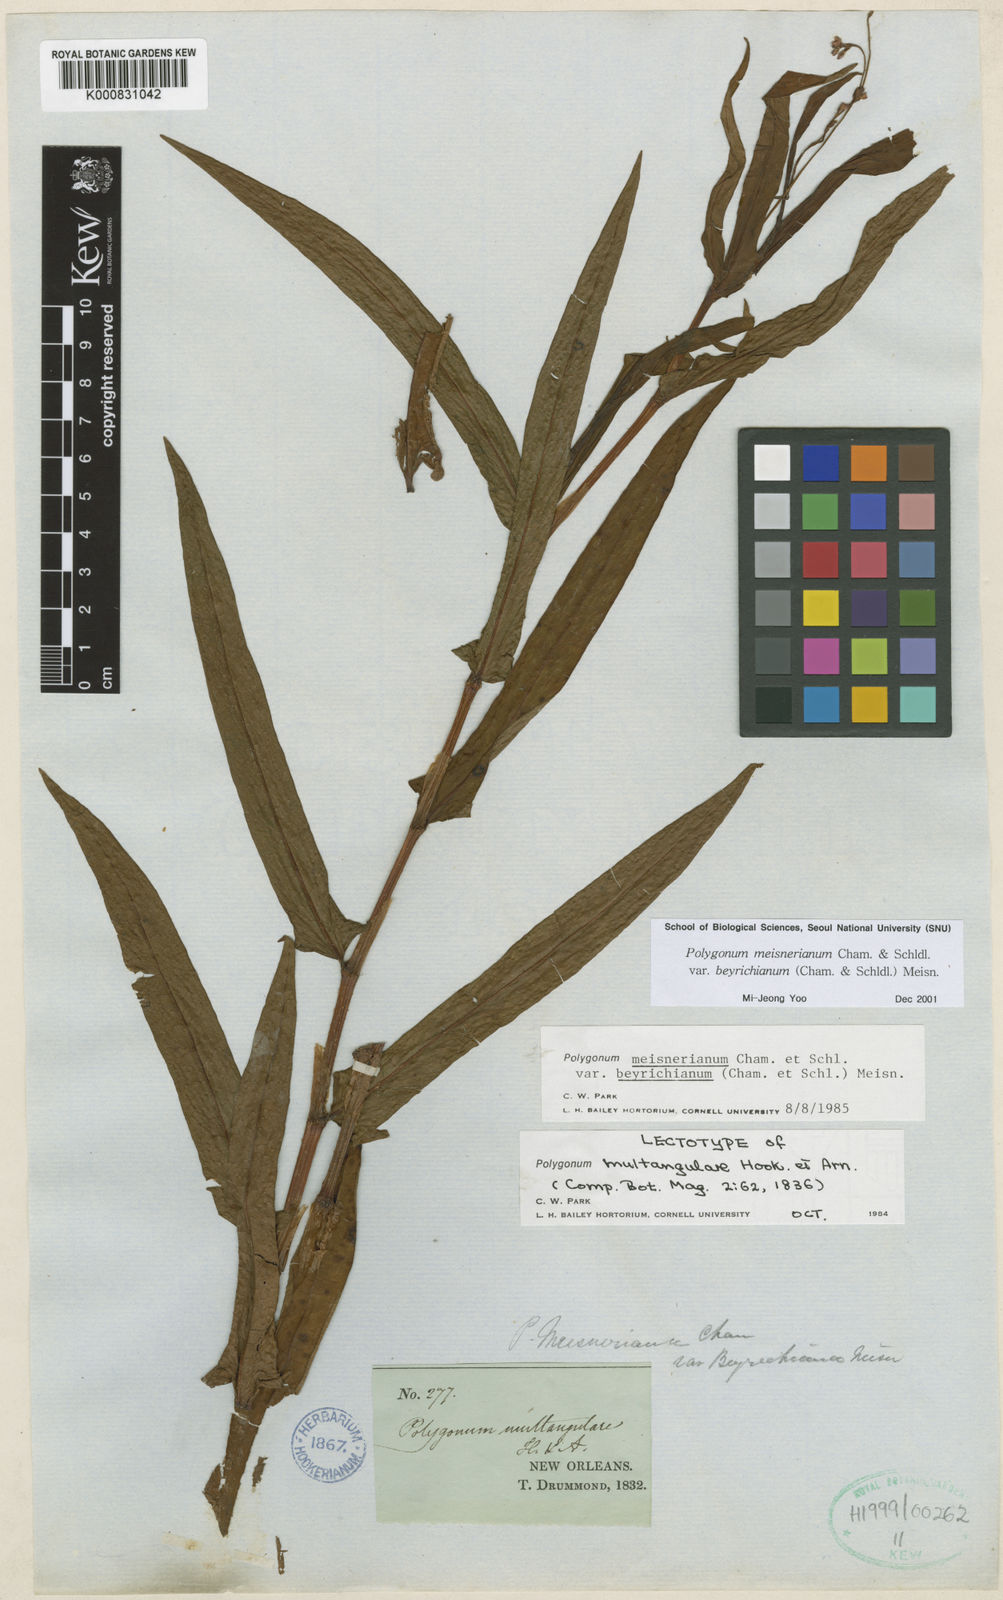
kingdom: Plantae
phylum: Tracheophyta
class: Magnoliopsida
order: Caryophyllales
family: Polygonaceae
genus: Persicaria
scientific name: Persicaria meisneriana
